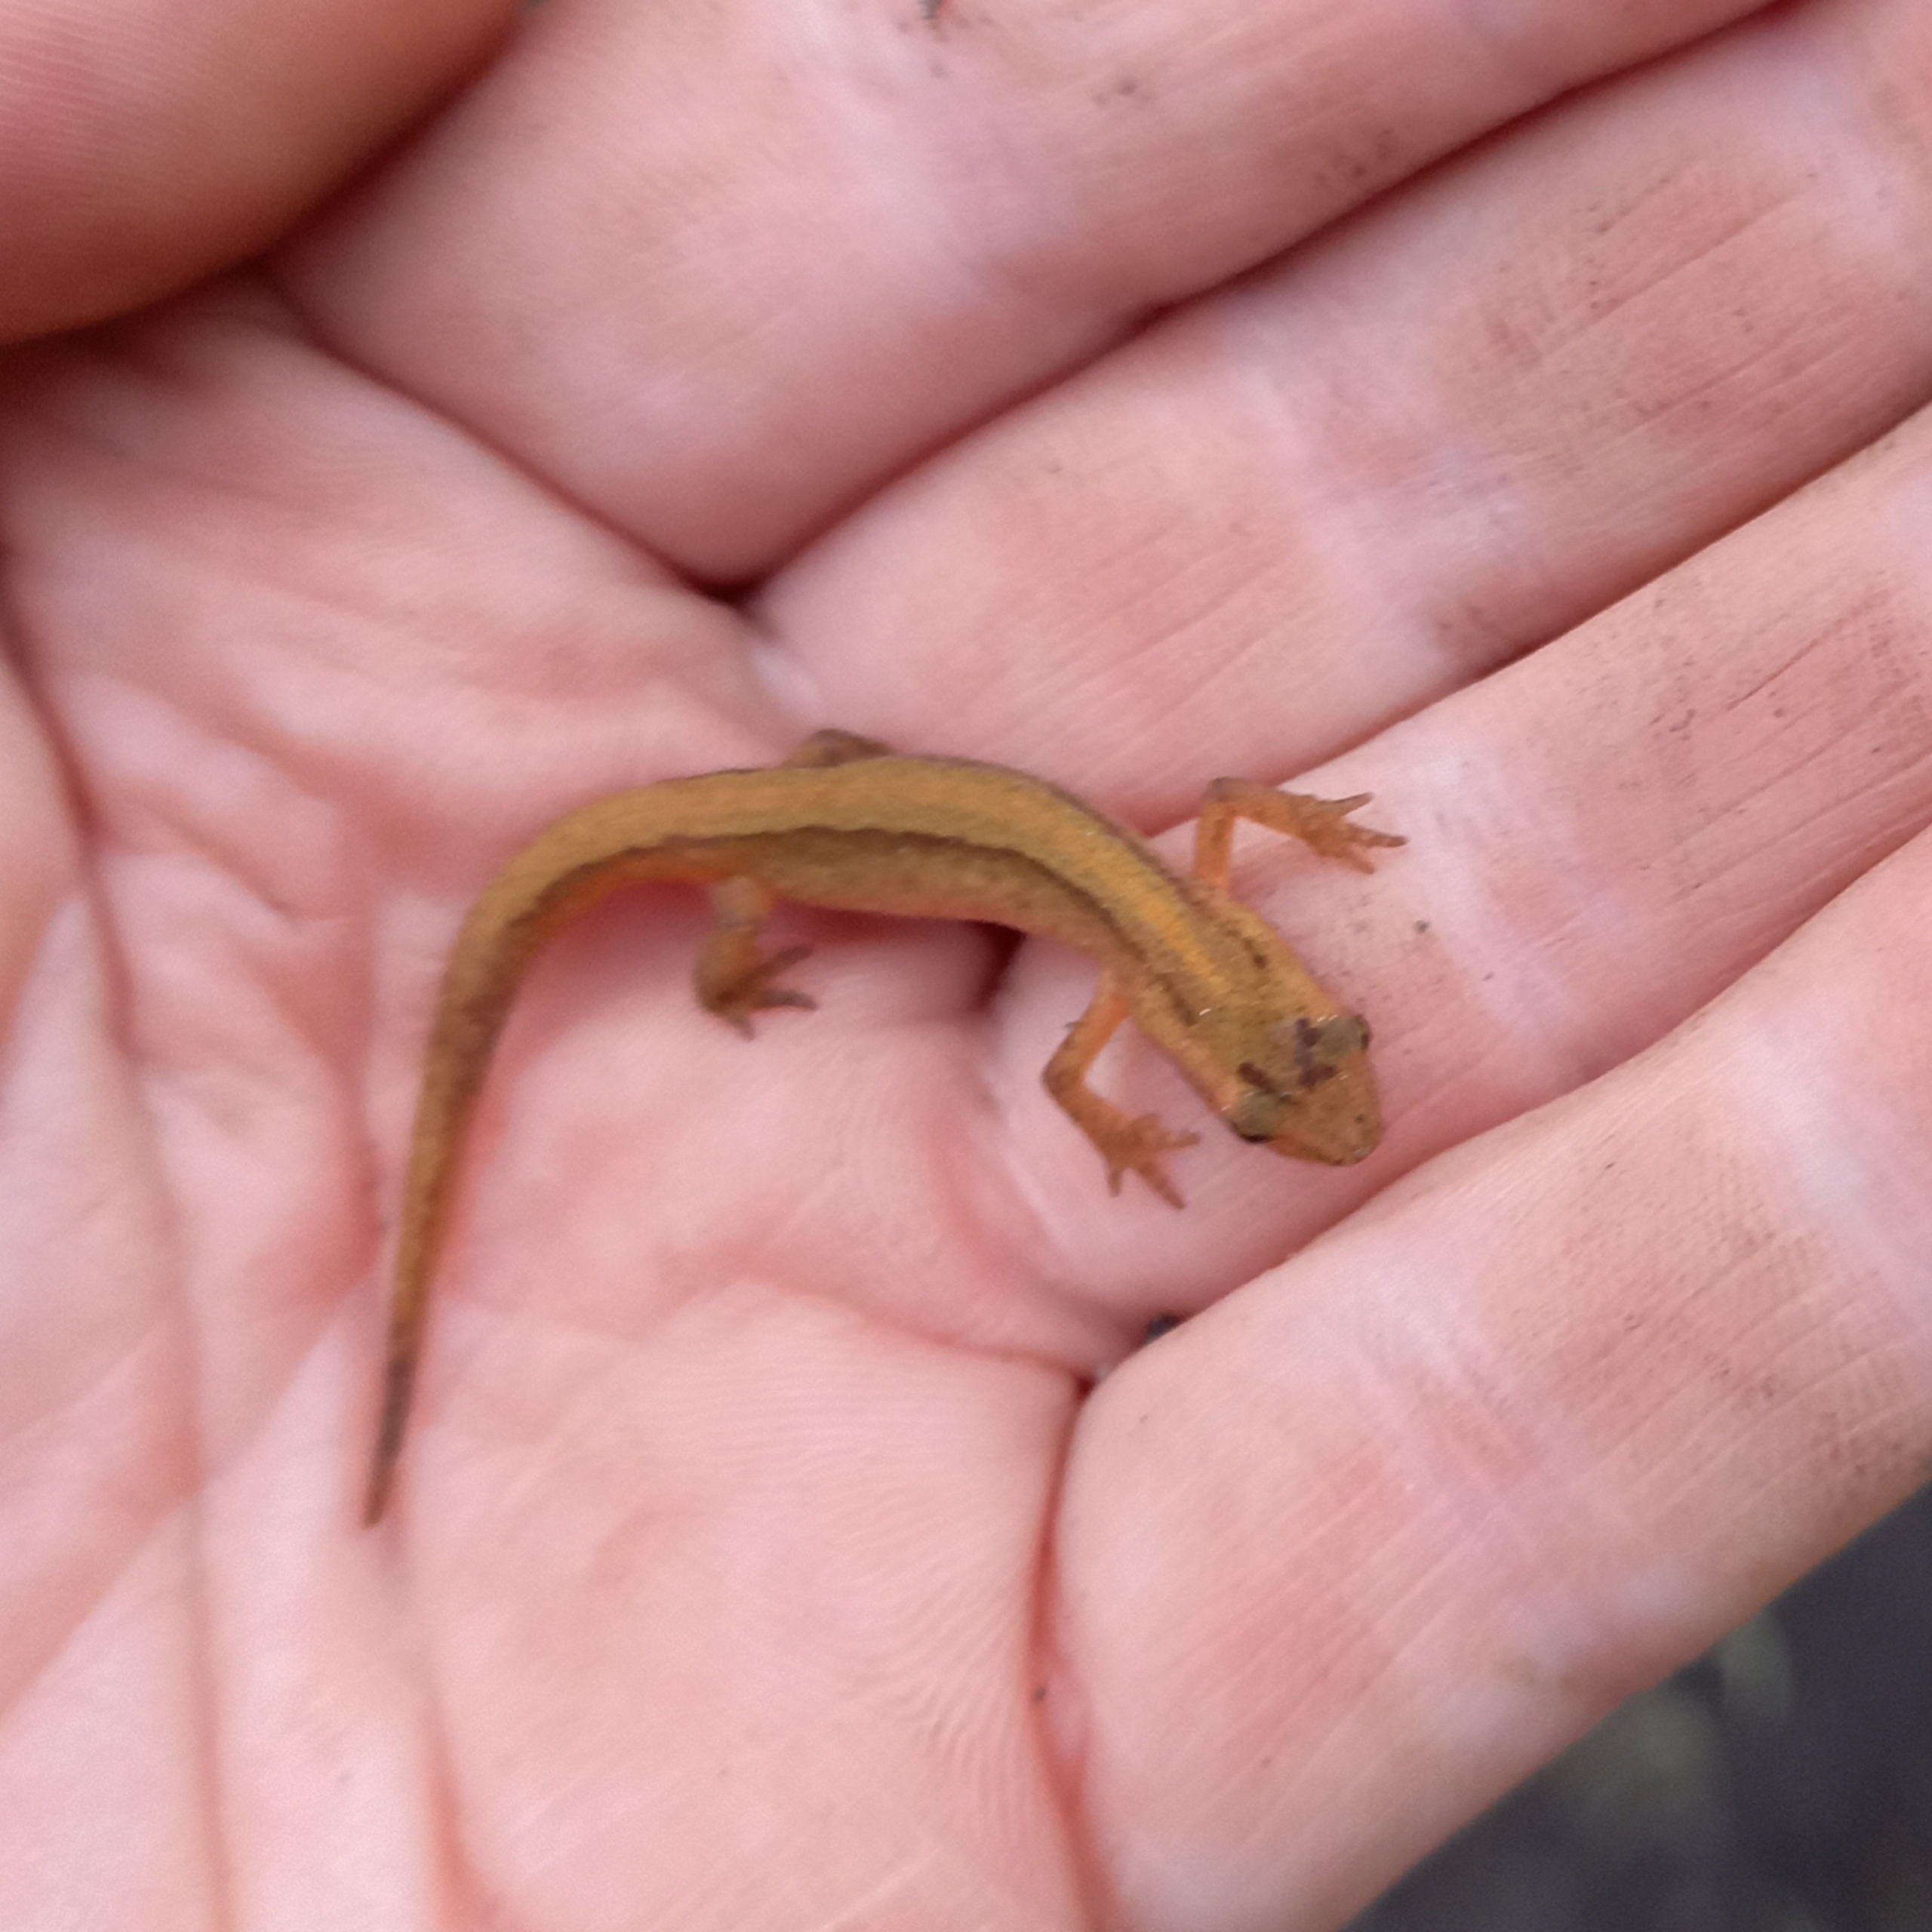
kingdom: Animalia
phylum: Chordata
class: Amphibia
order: Caudata
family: Salamandridae
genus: Lissotriton
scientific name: Lissotriton vulgaris
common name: Lille vandsalamander
